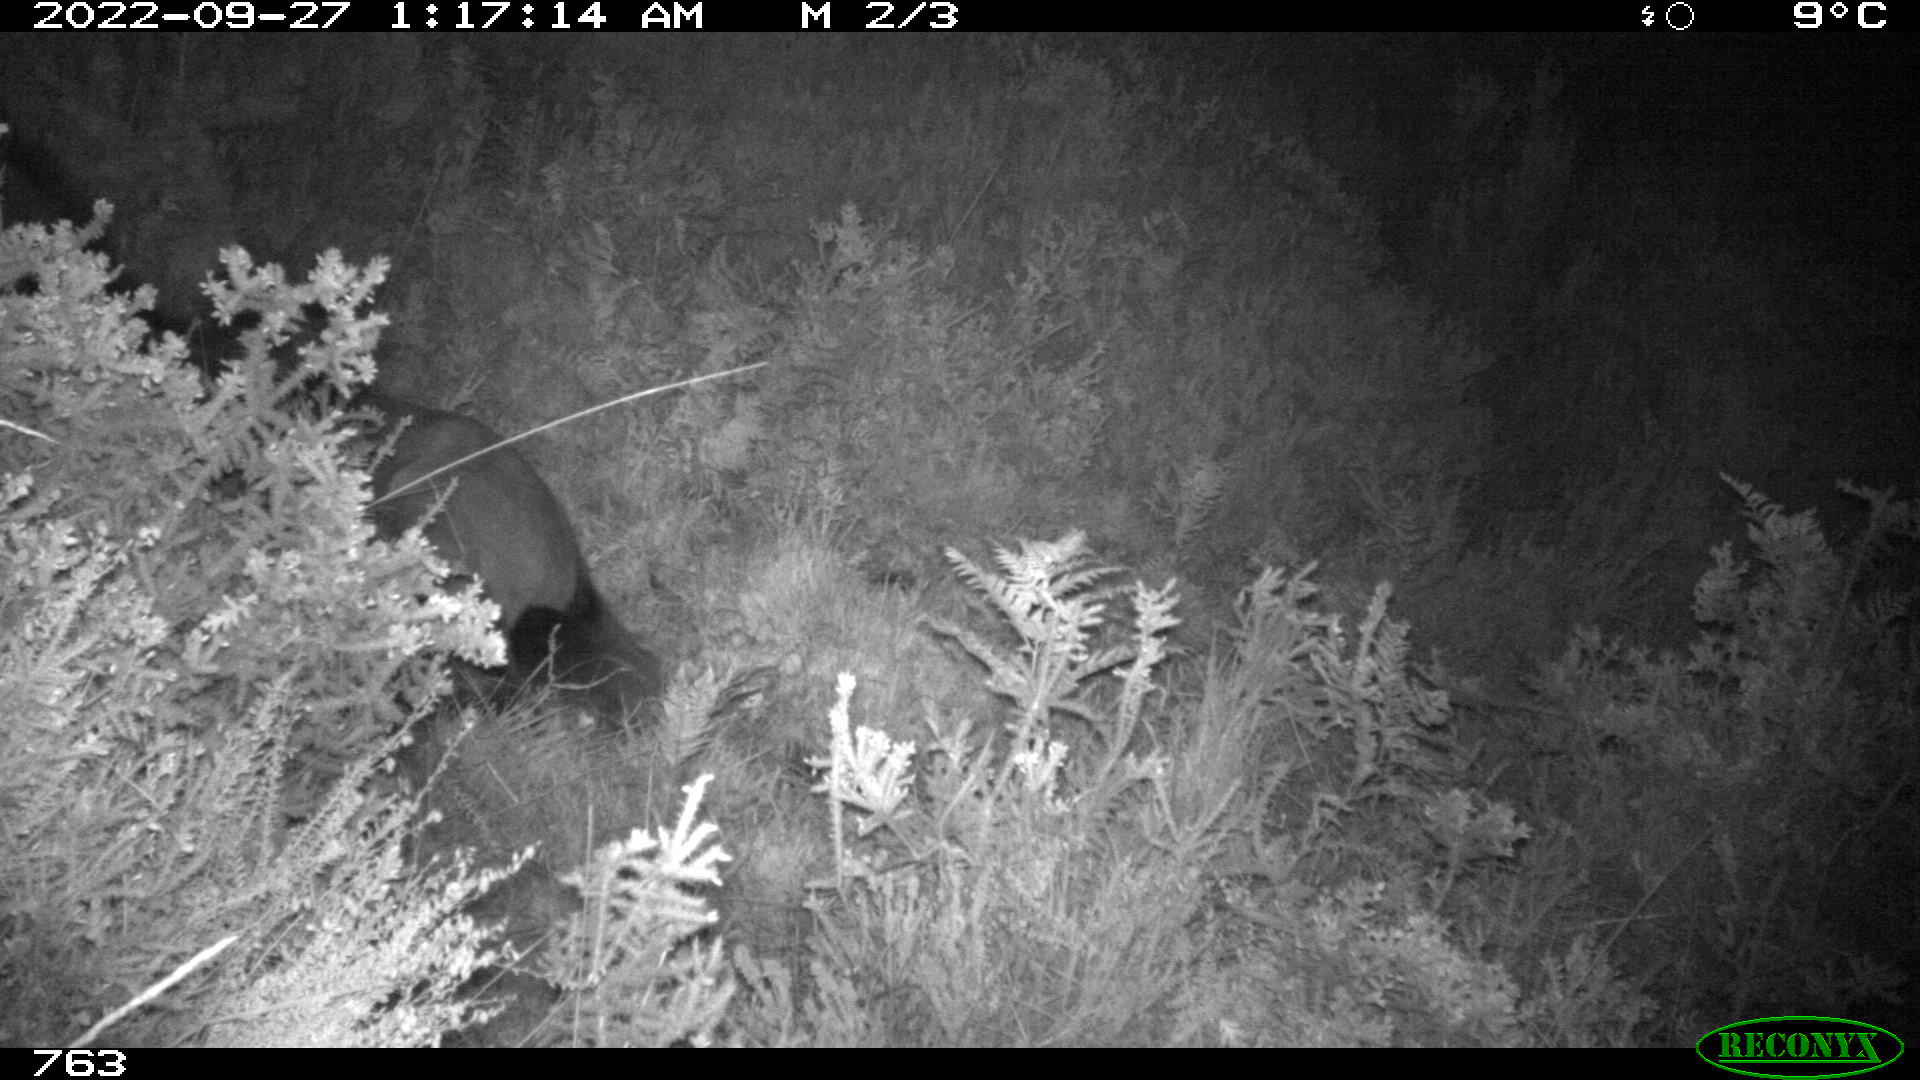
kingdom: Animalia
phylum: Chordata
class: Mammalia
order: Perissodactyla
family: Equidae
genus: Equus
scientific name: Equus caballus
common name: Horse
